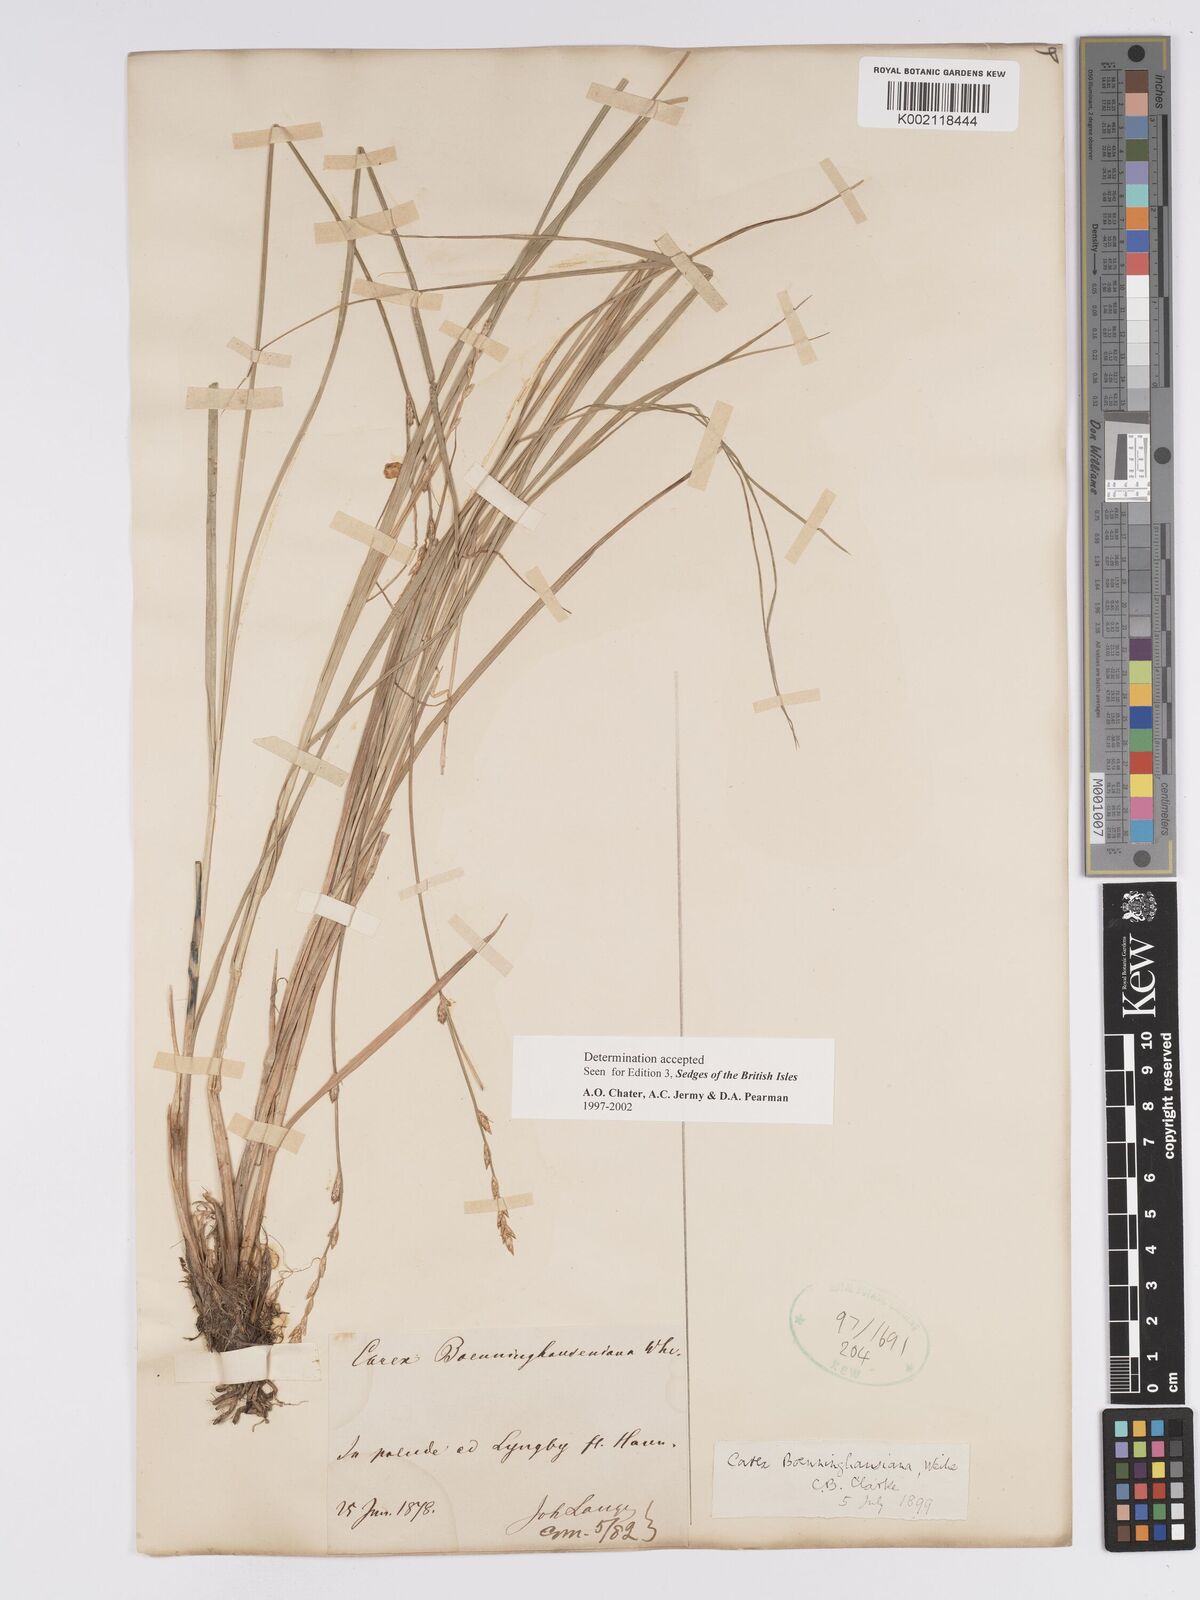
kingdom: Plantae
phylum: Tracheophyta
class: Liliopsida
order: Poales
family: Cyperaceae
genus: Carex
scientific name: Carex boenninghausiana
